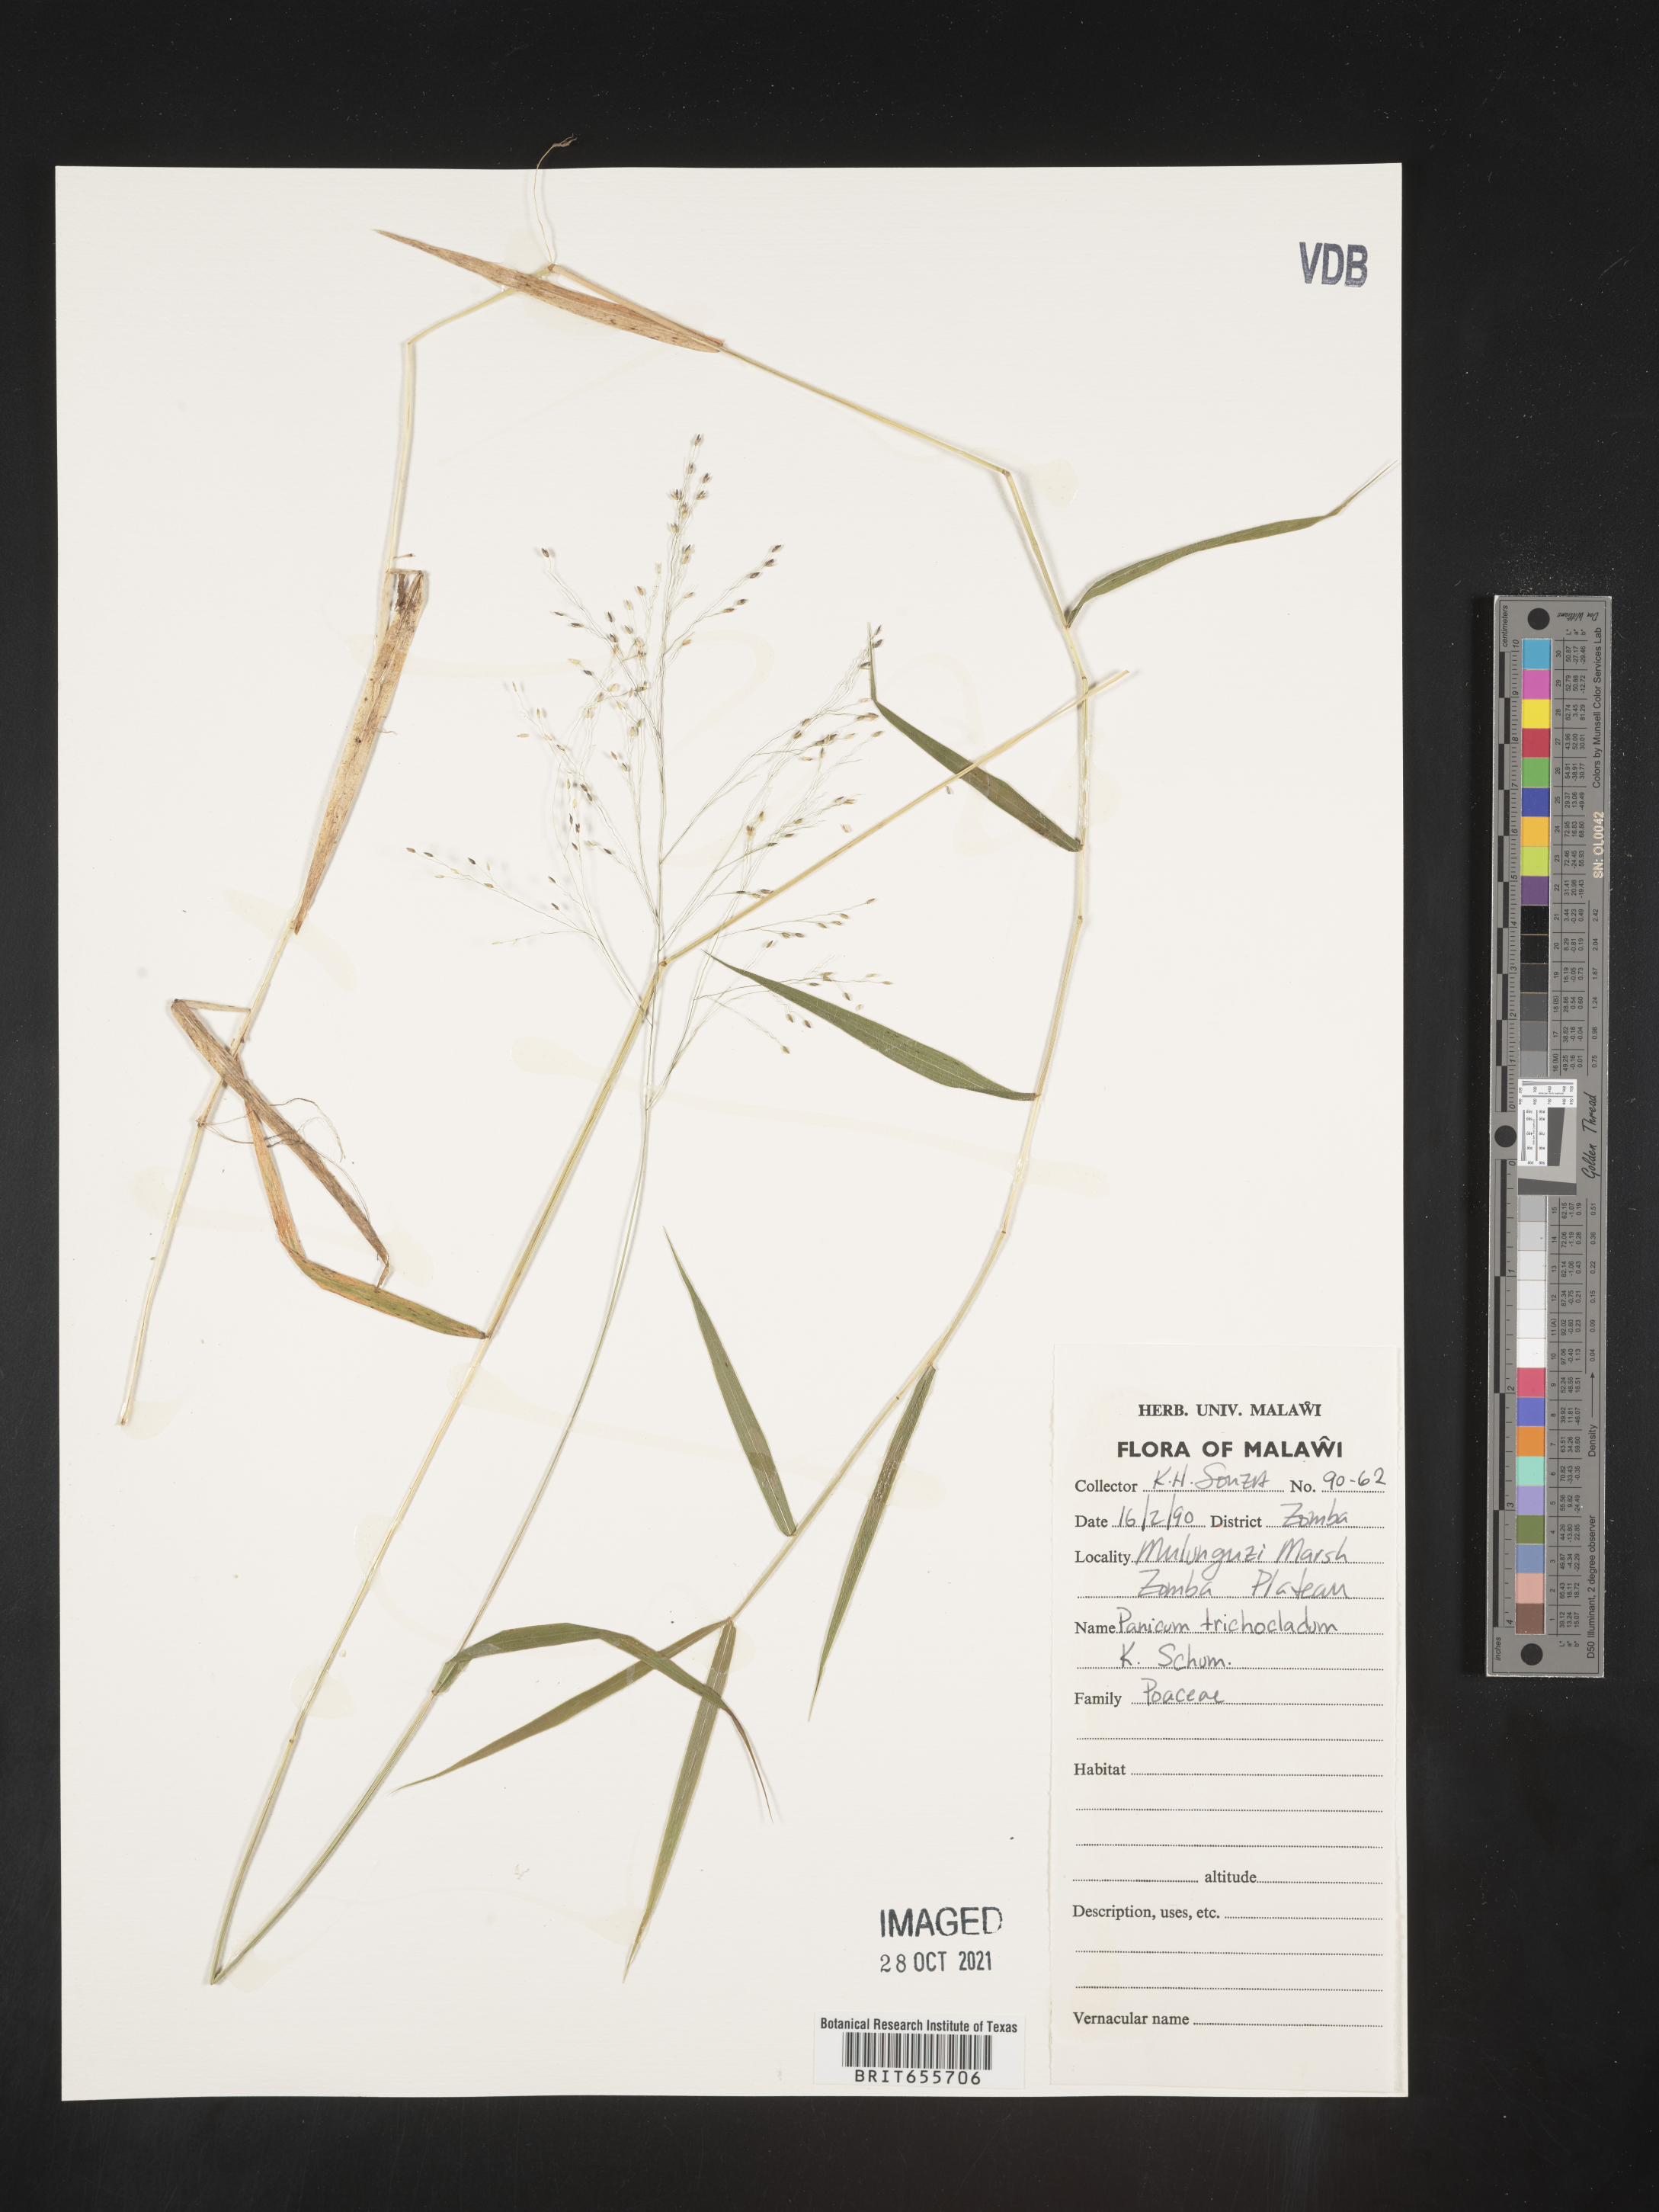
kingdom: Plantae
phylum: Tracheophyta
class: Liliopsida
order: Poales
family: Poaceae
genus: Panicum
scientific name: Panicum
